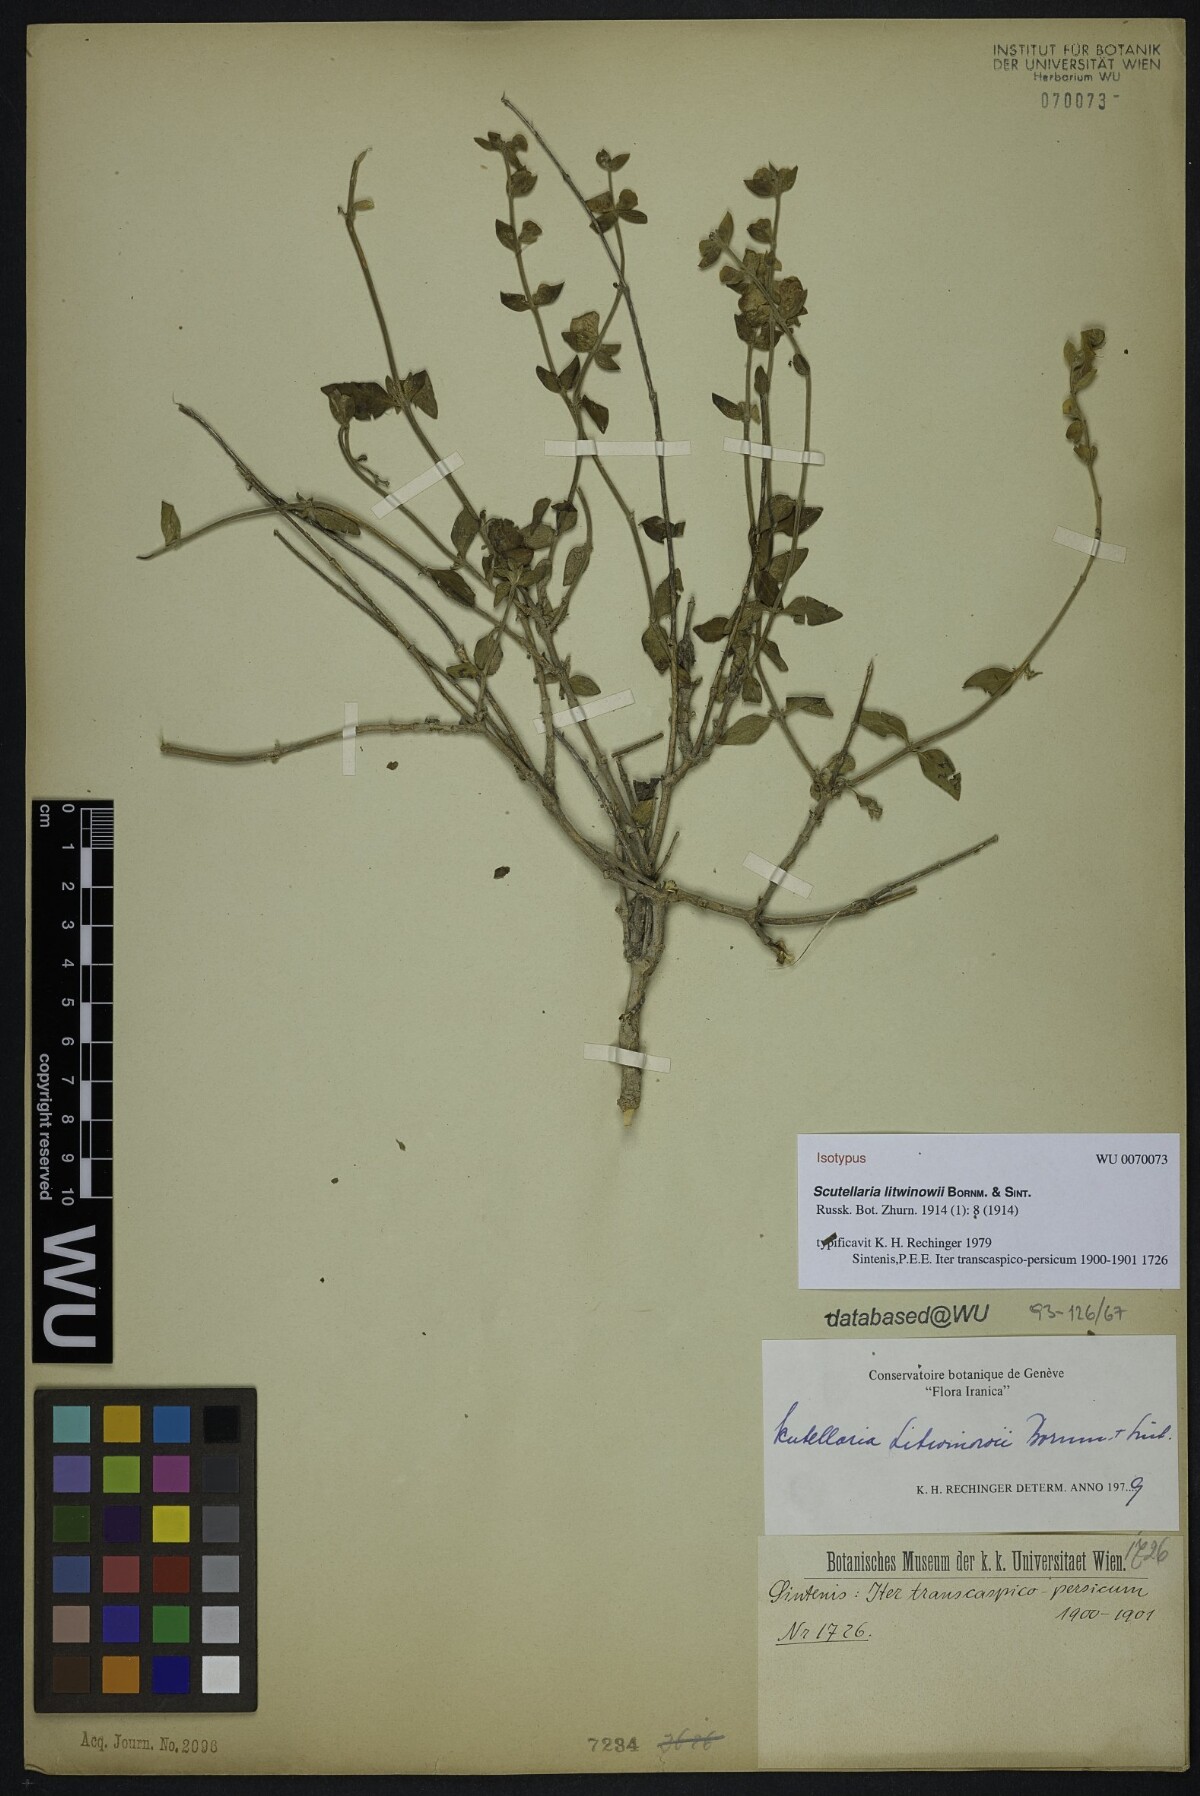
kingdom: Plantae
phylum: Tracheophyta
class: Magnoliopsida
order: Lamiales
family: Lamiaceae
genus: Scutellaria
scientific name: Scutellaria litwinowii
